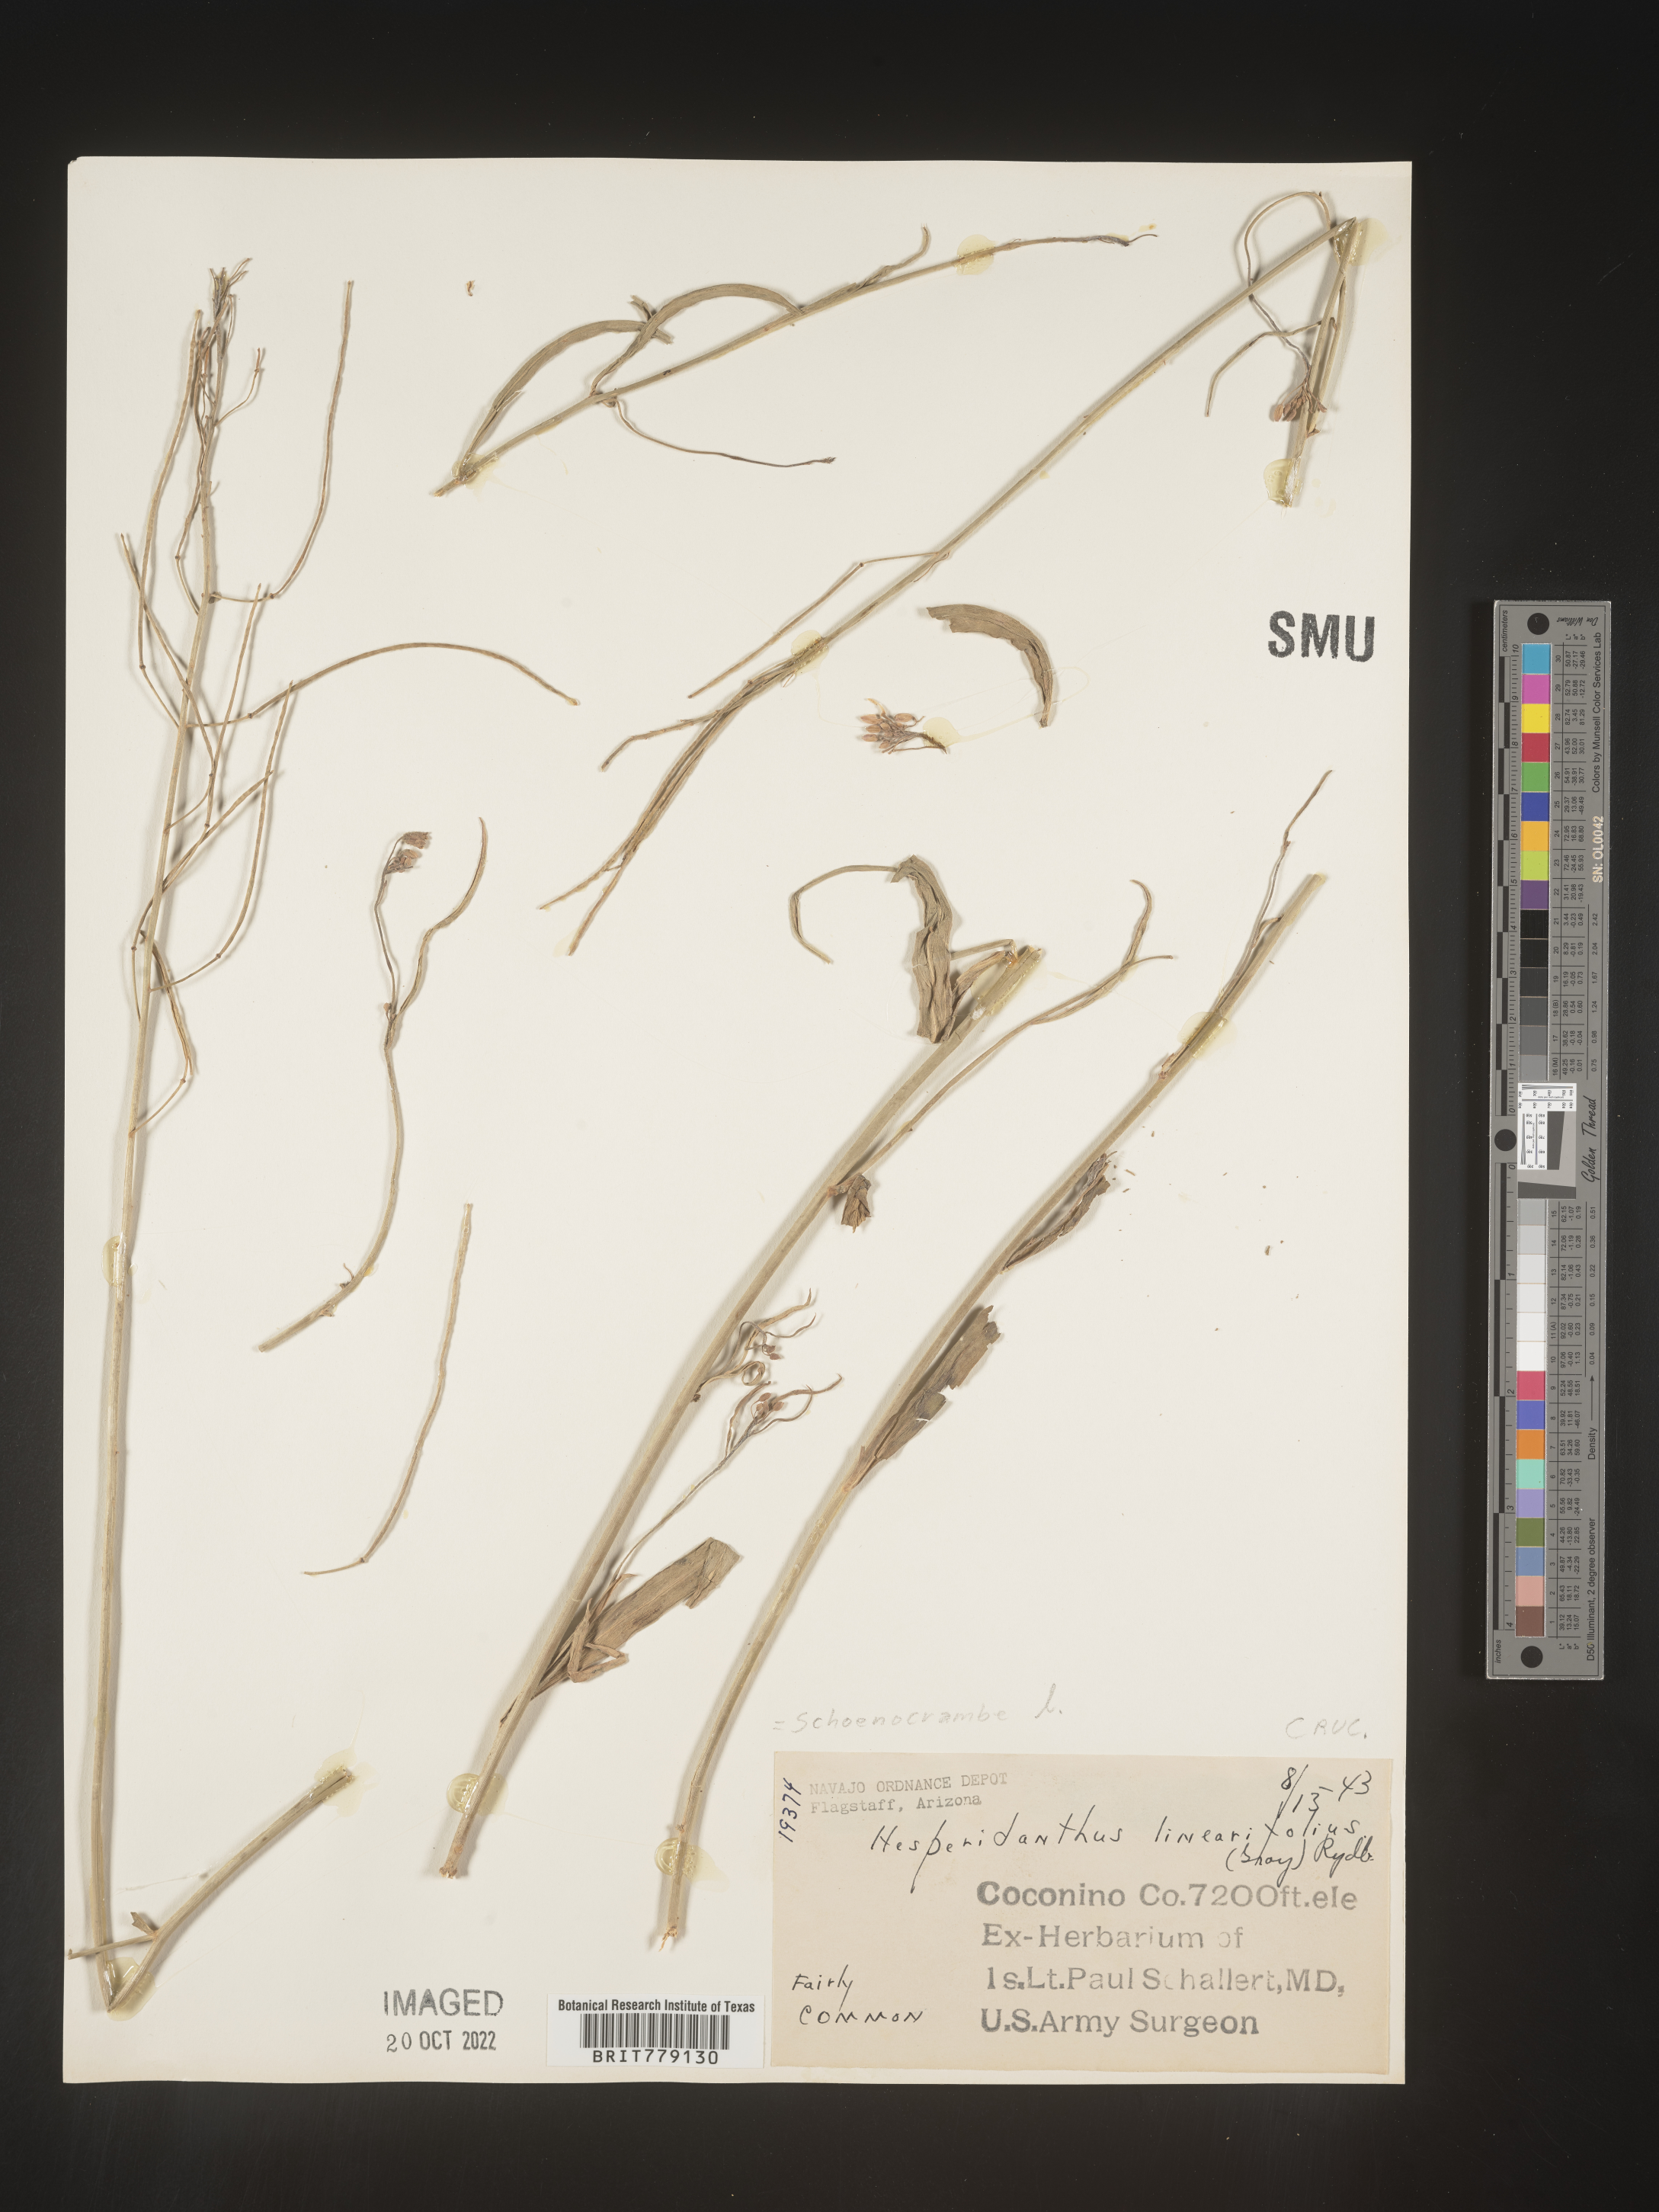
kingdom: Plantae
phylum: Tracheophyta
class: Magnoliopsida
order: Brassicales
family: Brassicaceae
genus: Hesperidanthus
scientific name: Hesperidanthus
